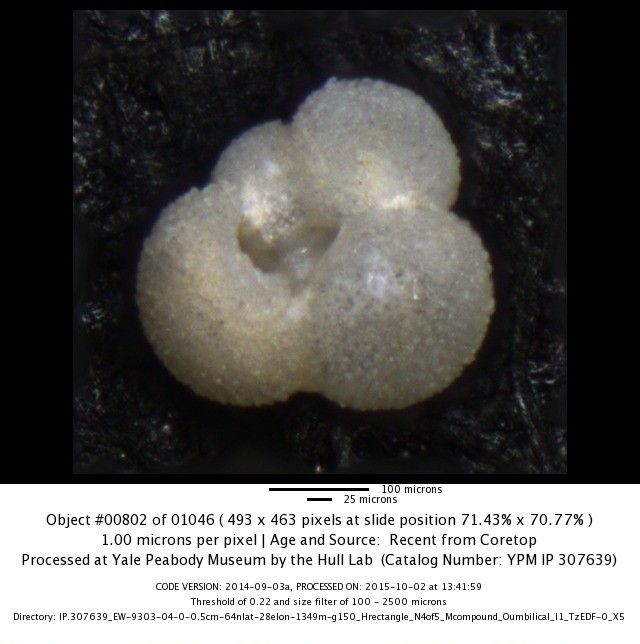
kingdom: Chromista
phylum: Foraminifera
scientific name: Foraminifera
